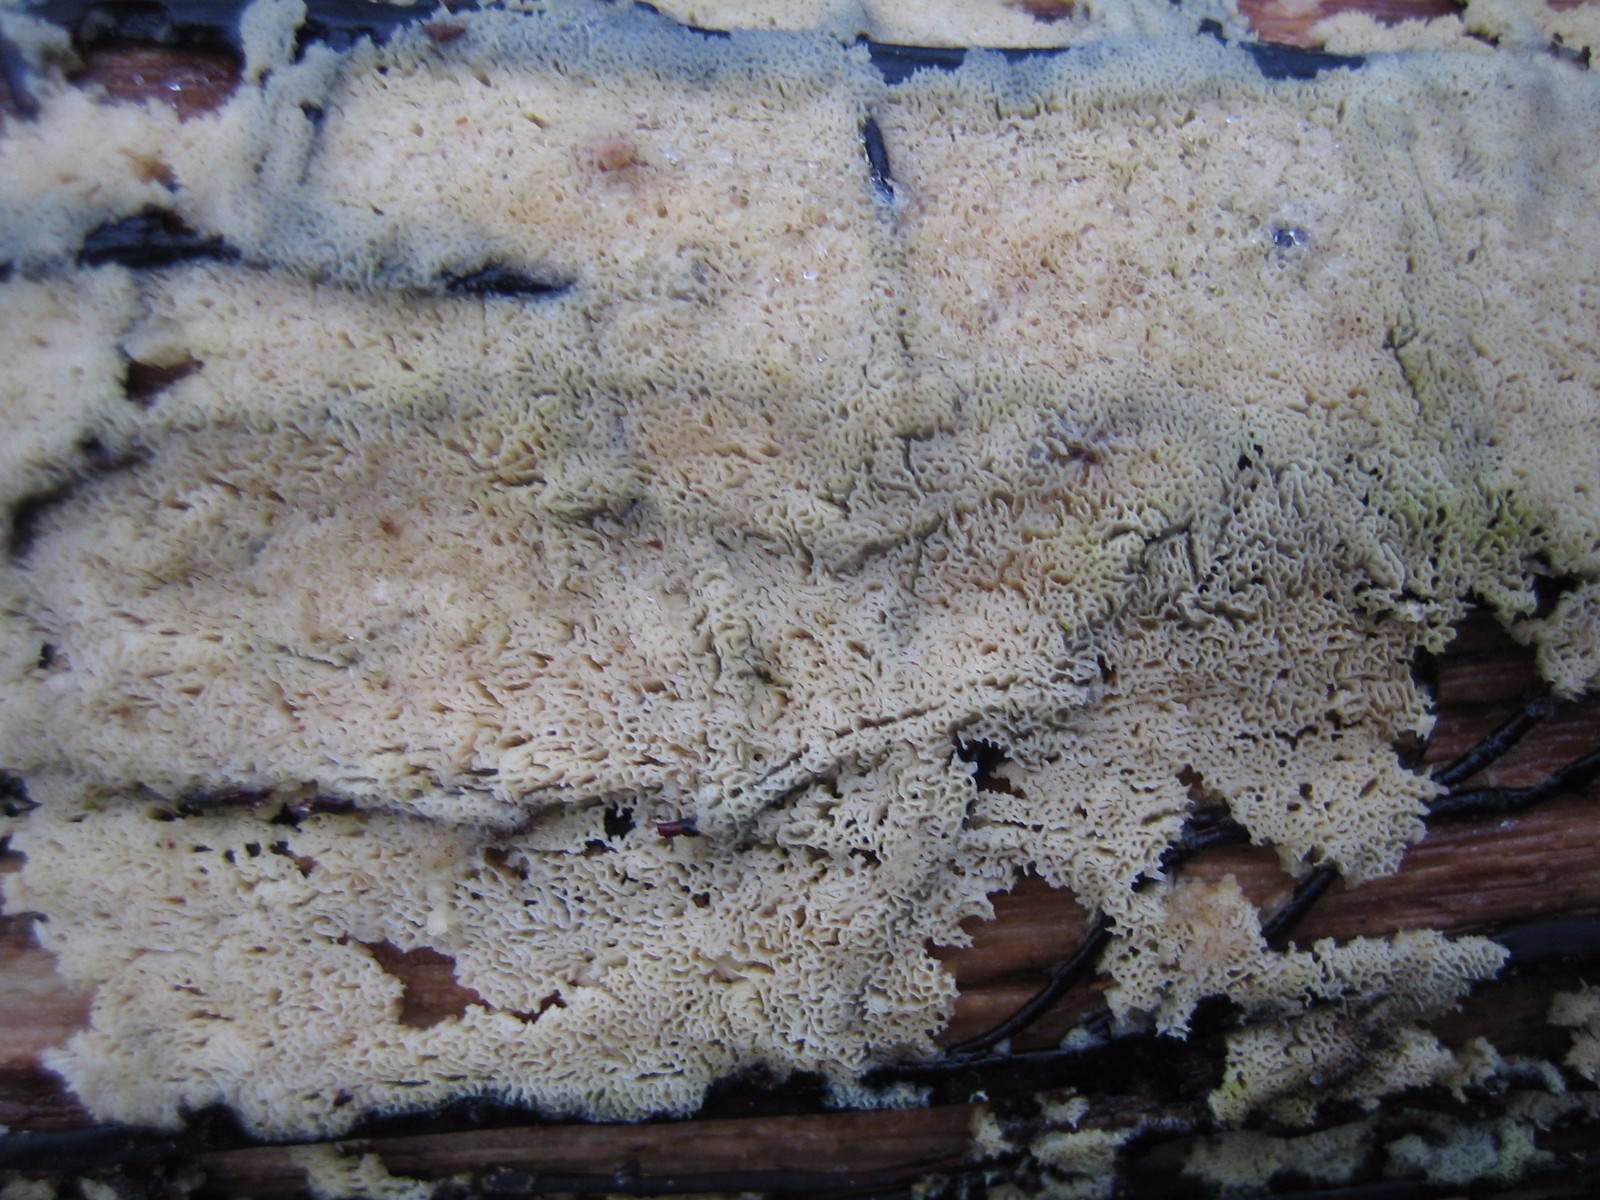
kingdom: Fungi
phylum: Basidiomycota
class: Agaricomycetes
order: Polyporales
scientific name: Polyporales
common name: poresvampordenen
